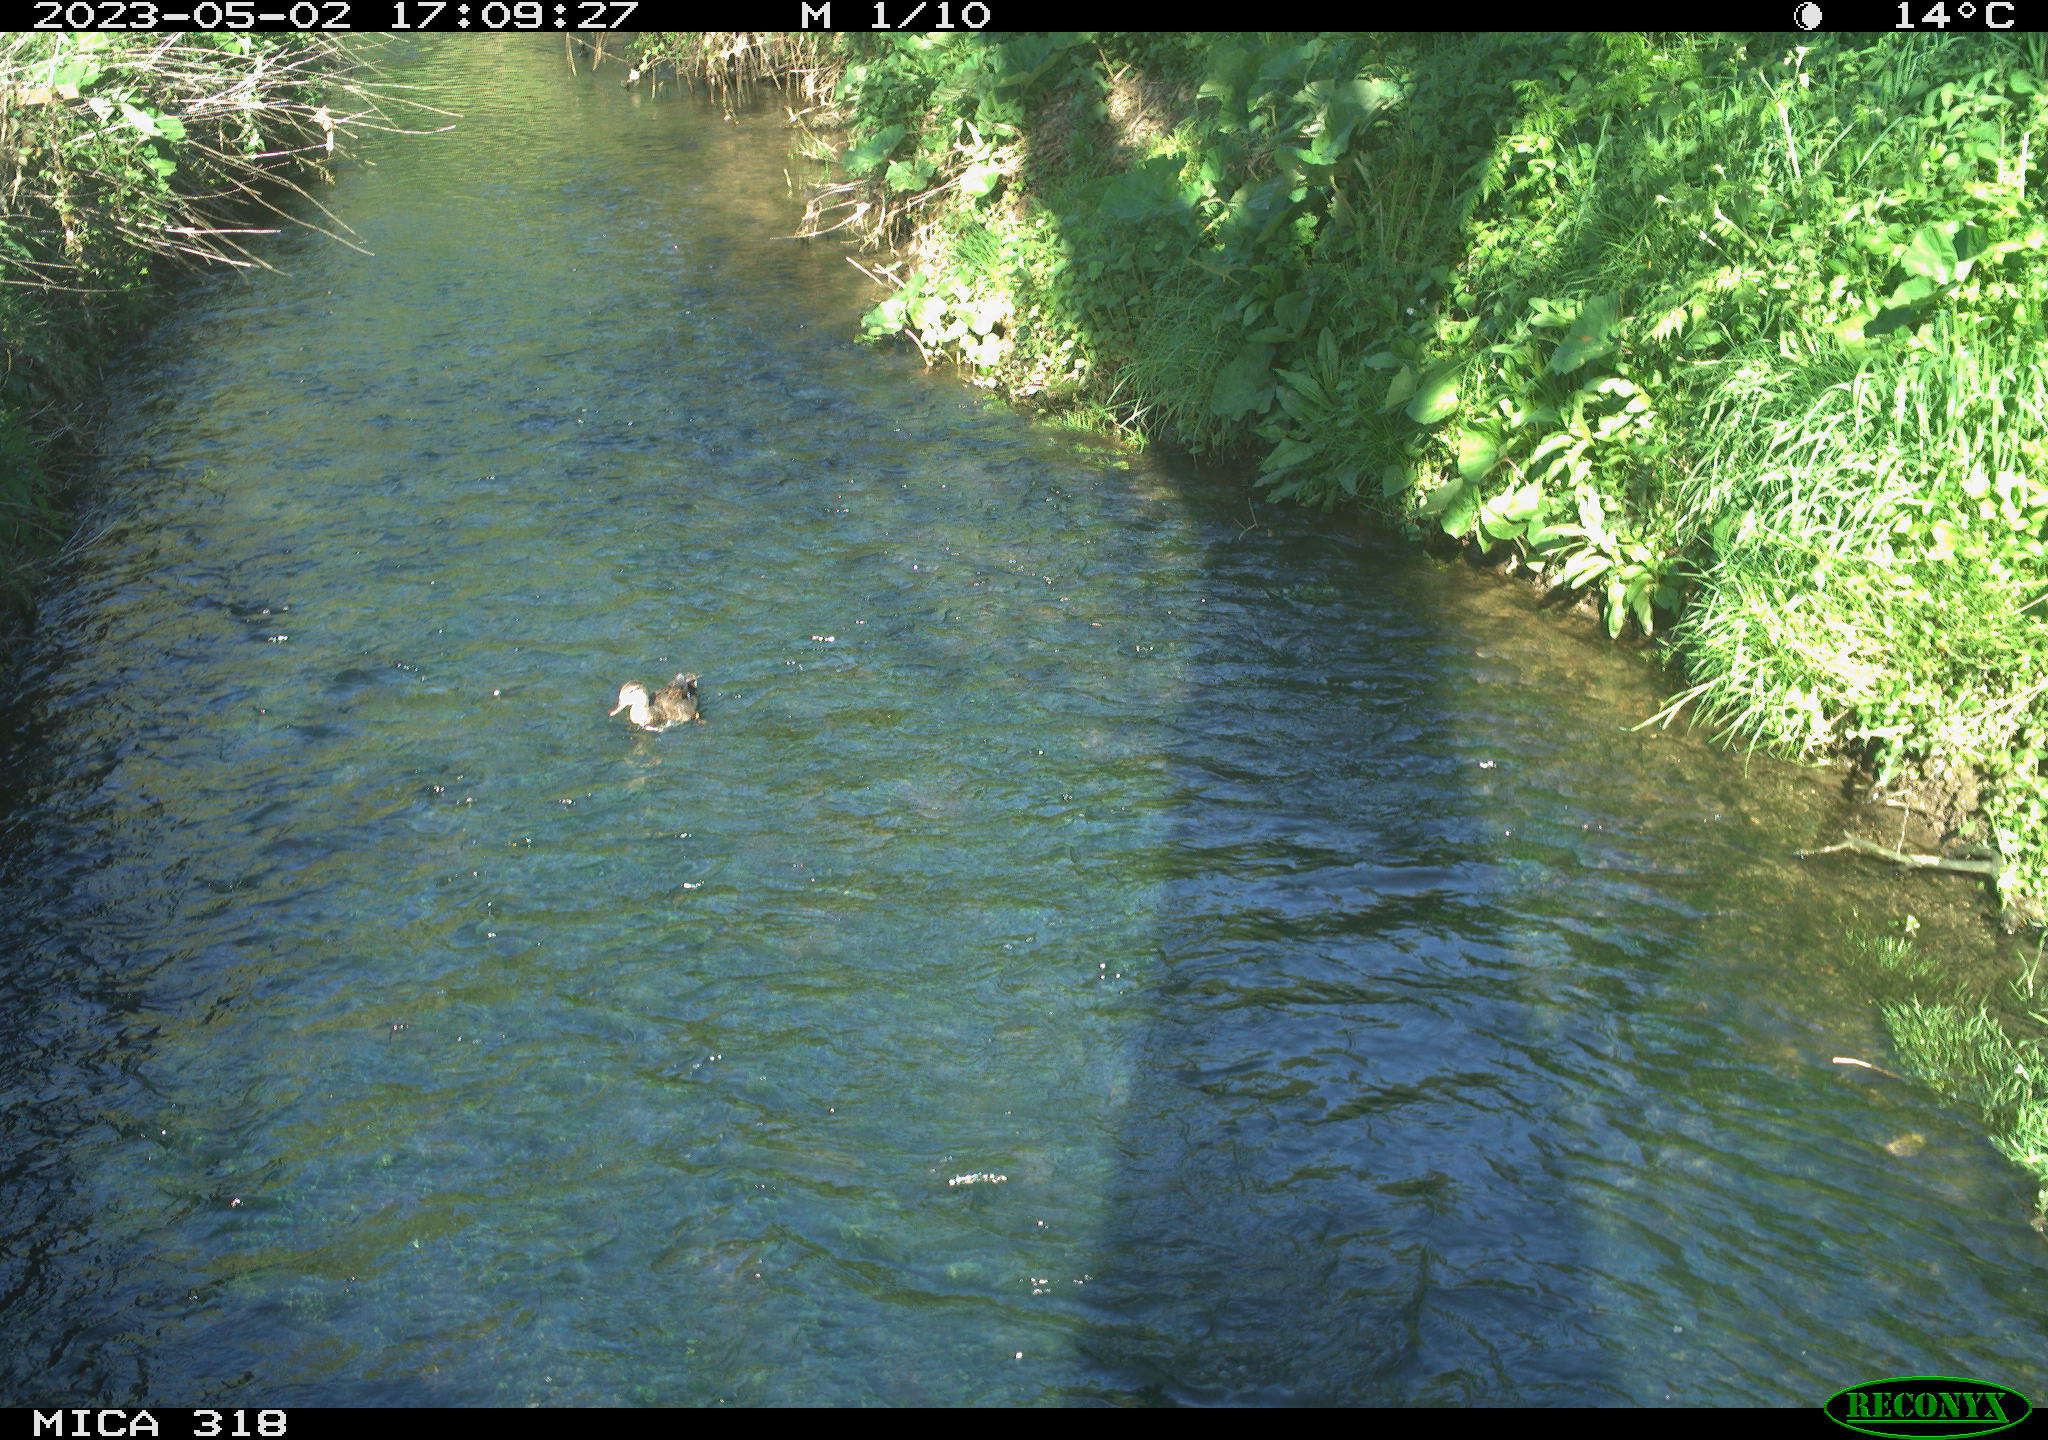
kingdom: Animalia
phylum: Chordata
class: Aves
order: Gruiformes
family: Rallidae
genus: Gallinula
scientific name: Gallinula chloropus
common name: Common moorhen
